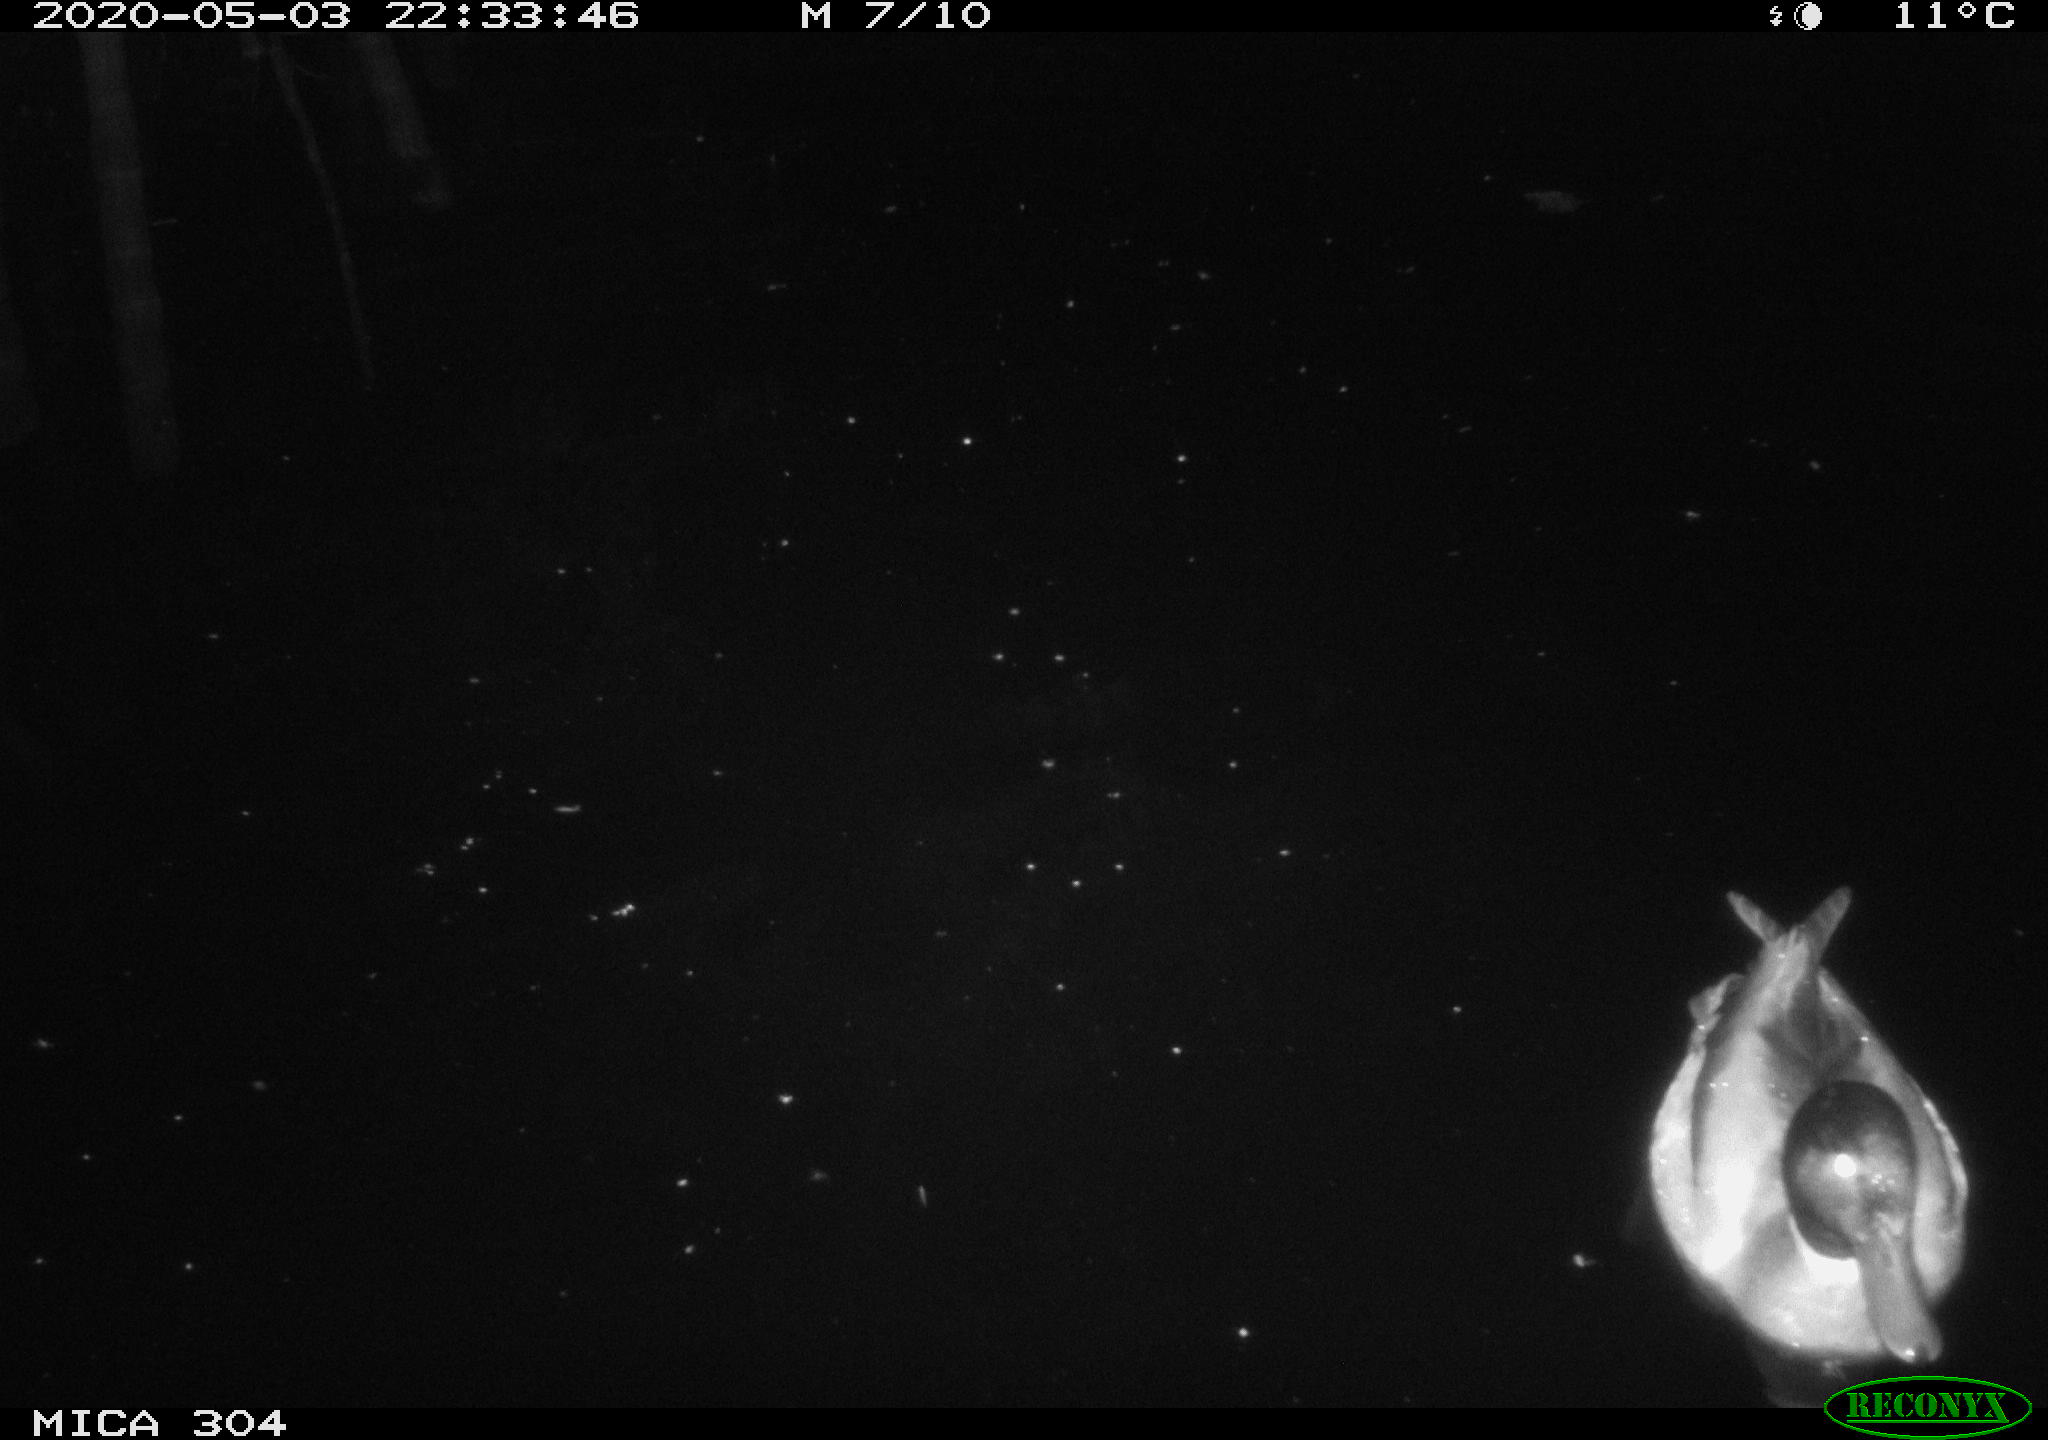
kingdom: Animalia
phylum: Chordata
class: Aves
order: Anseriformes
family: Anatidae
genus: Anas
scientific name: Anas platyrhynchos
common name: Mallard
